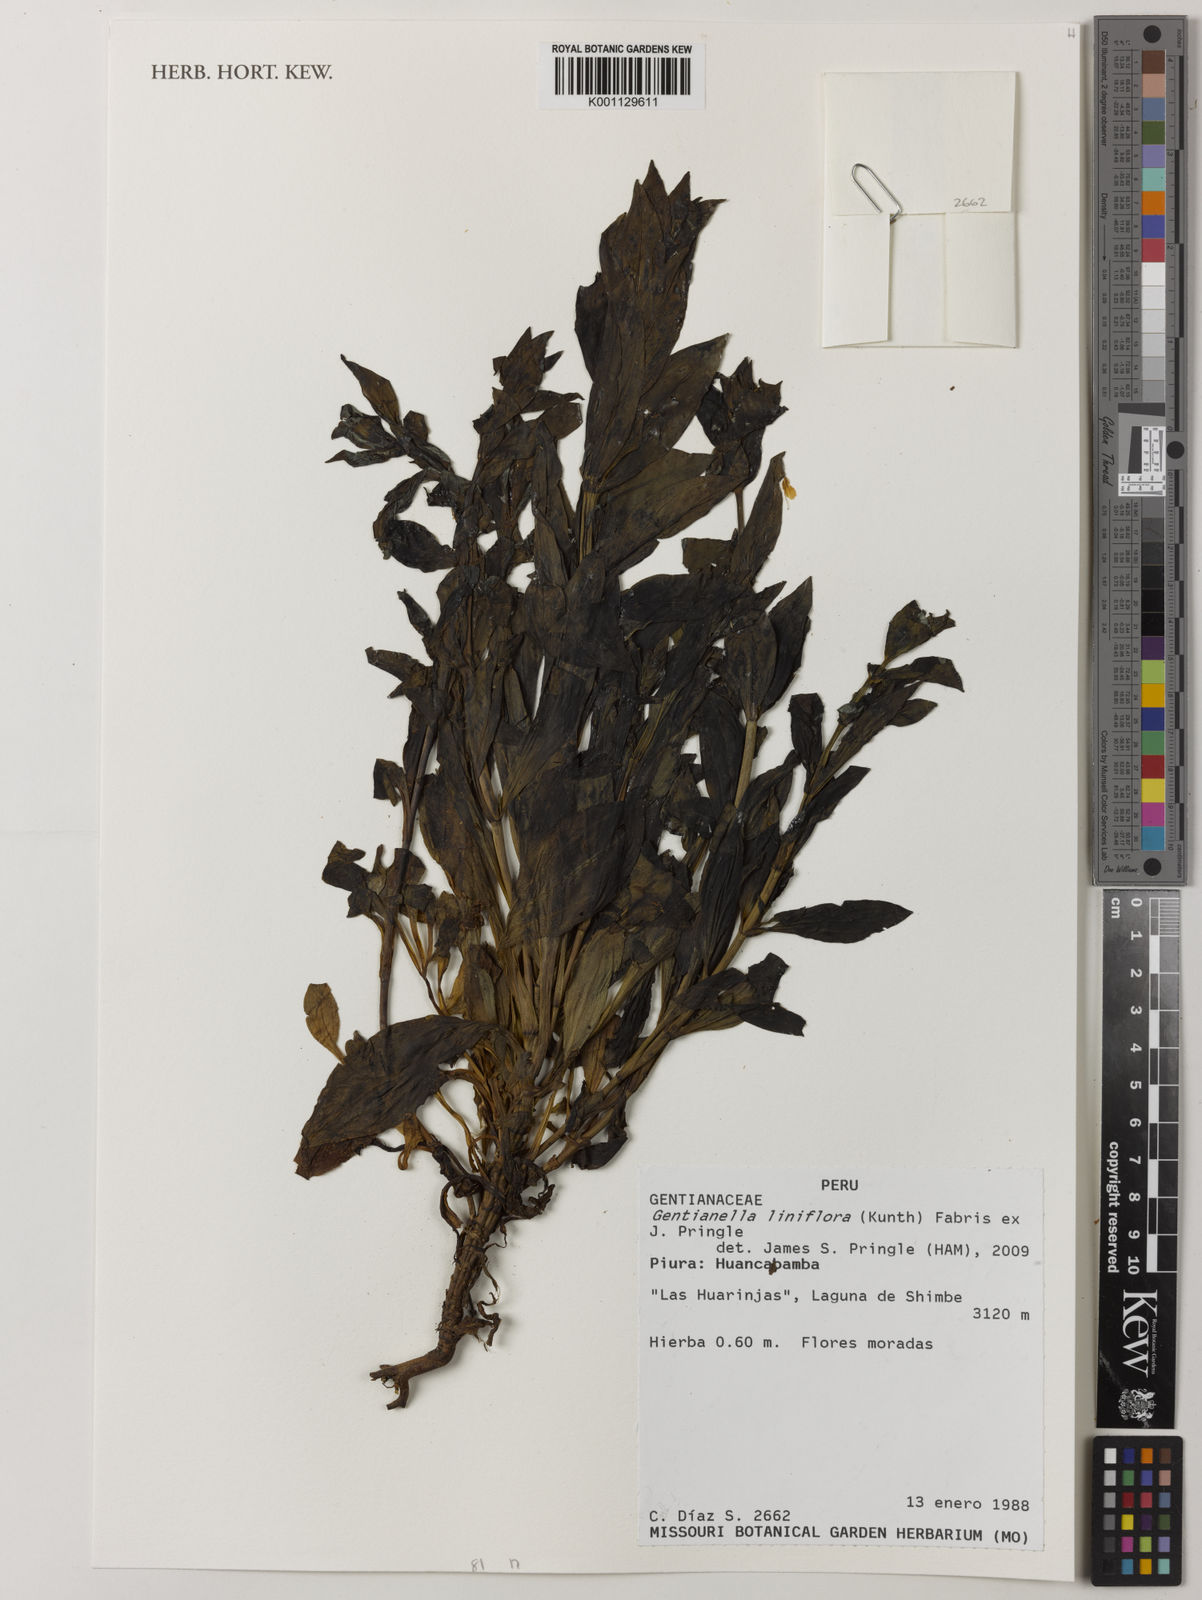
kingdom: Plantae
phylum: Tracheophyta
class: Magnoliopsida
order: Gentianales
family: Gentianaceae
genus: Gentianella
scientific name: Gentianella liniflora
